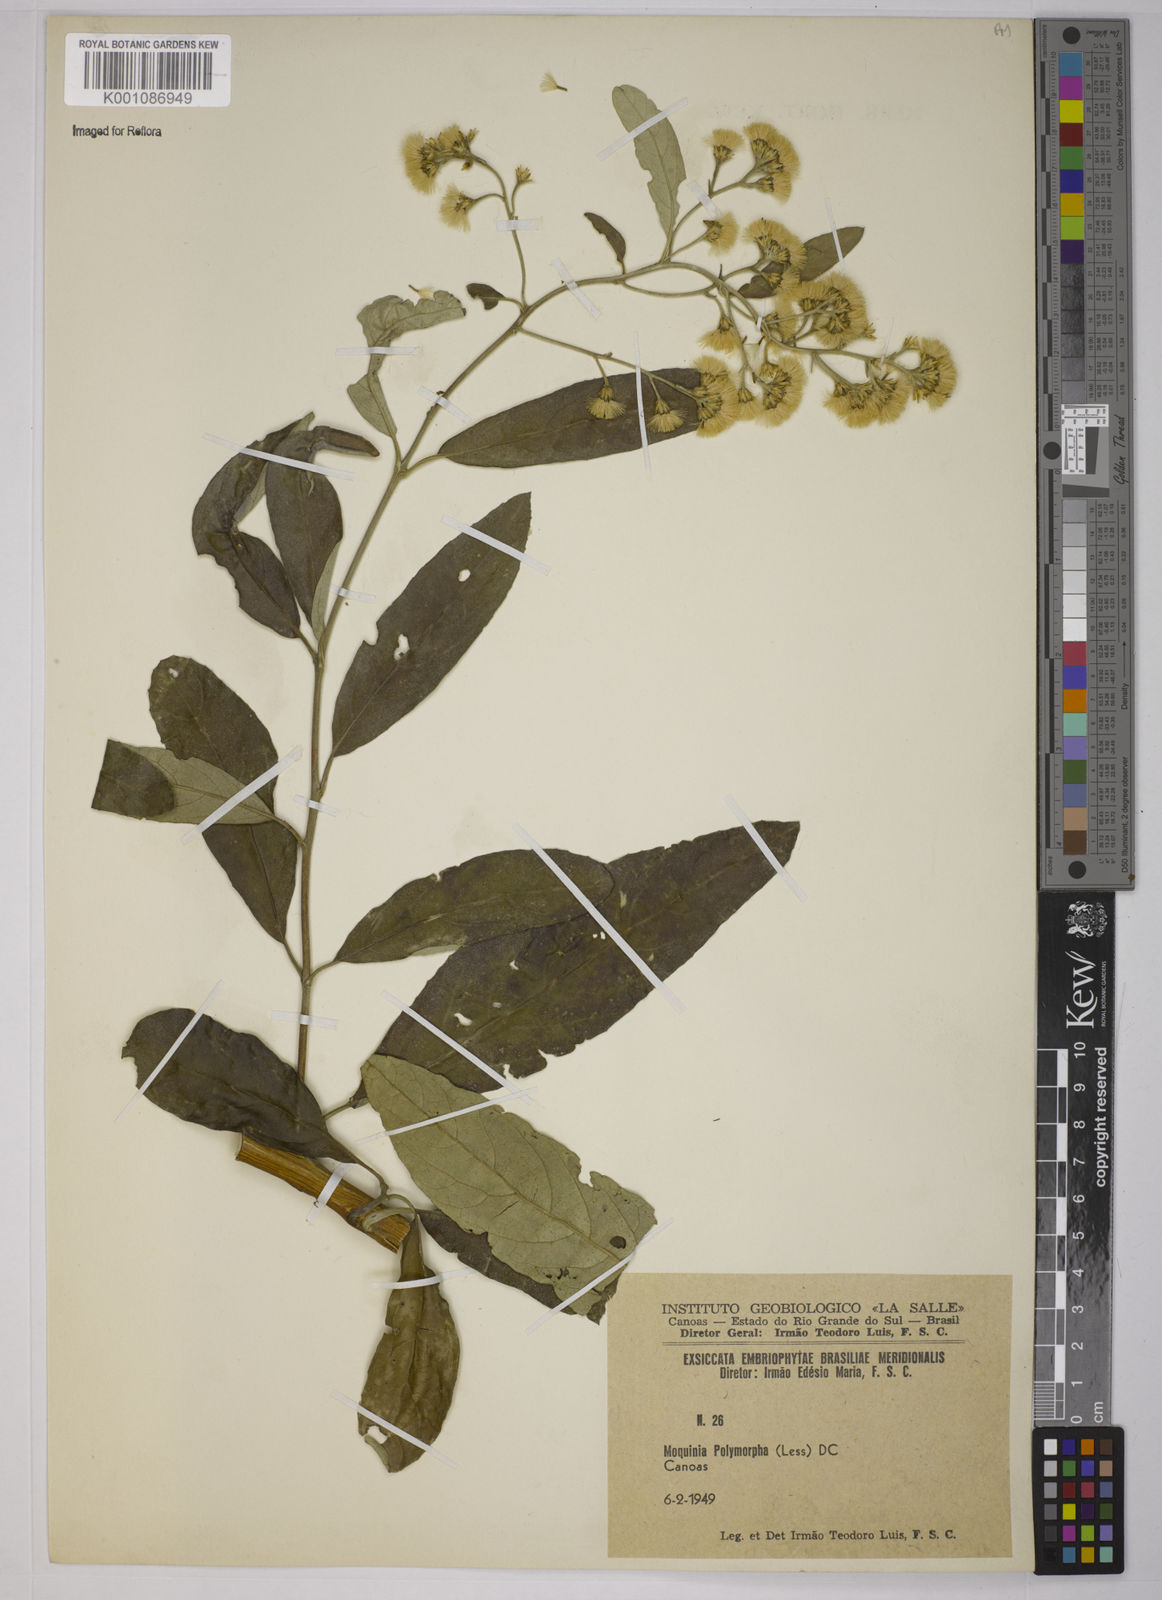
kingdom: Plantae
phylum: Tracheophyta
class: Magnoliopsida
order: Asterales
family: Asteraceae
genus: Moquiniastrum
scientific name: Moquiniastrum polymorphum
